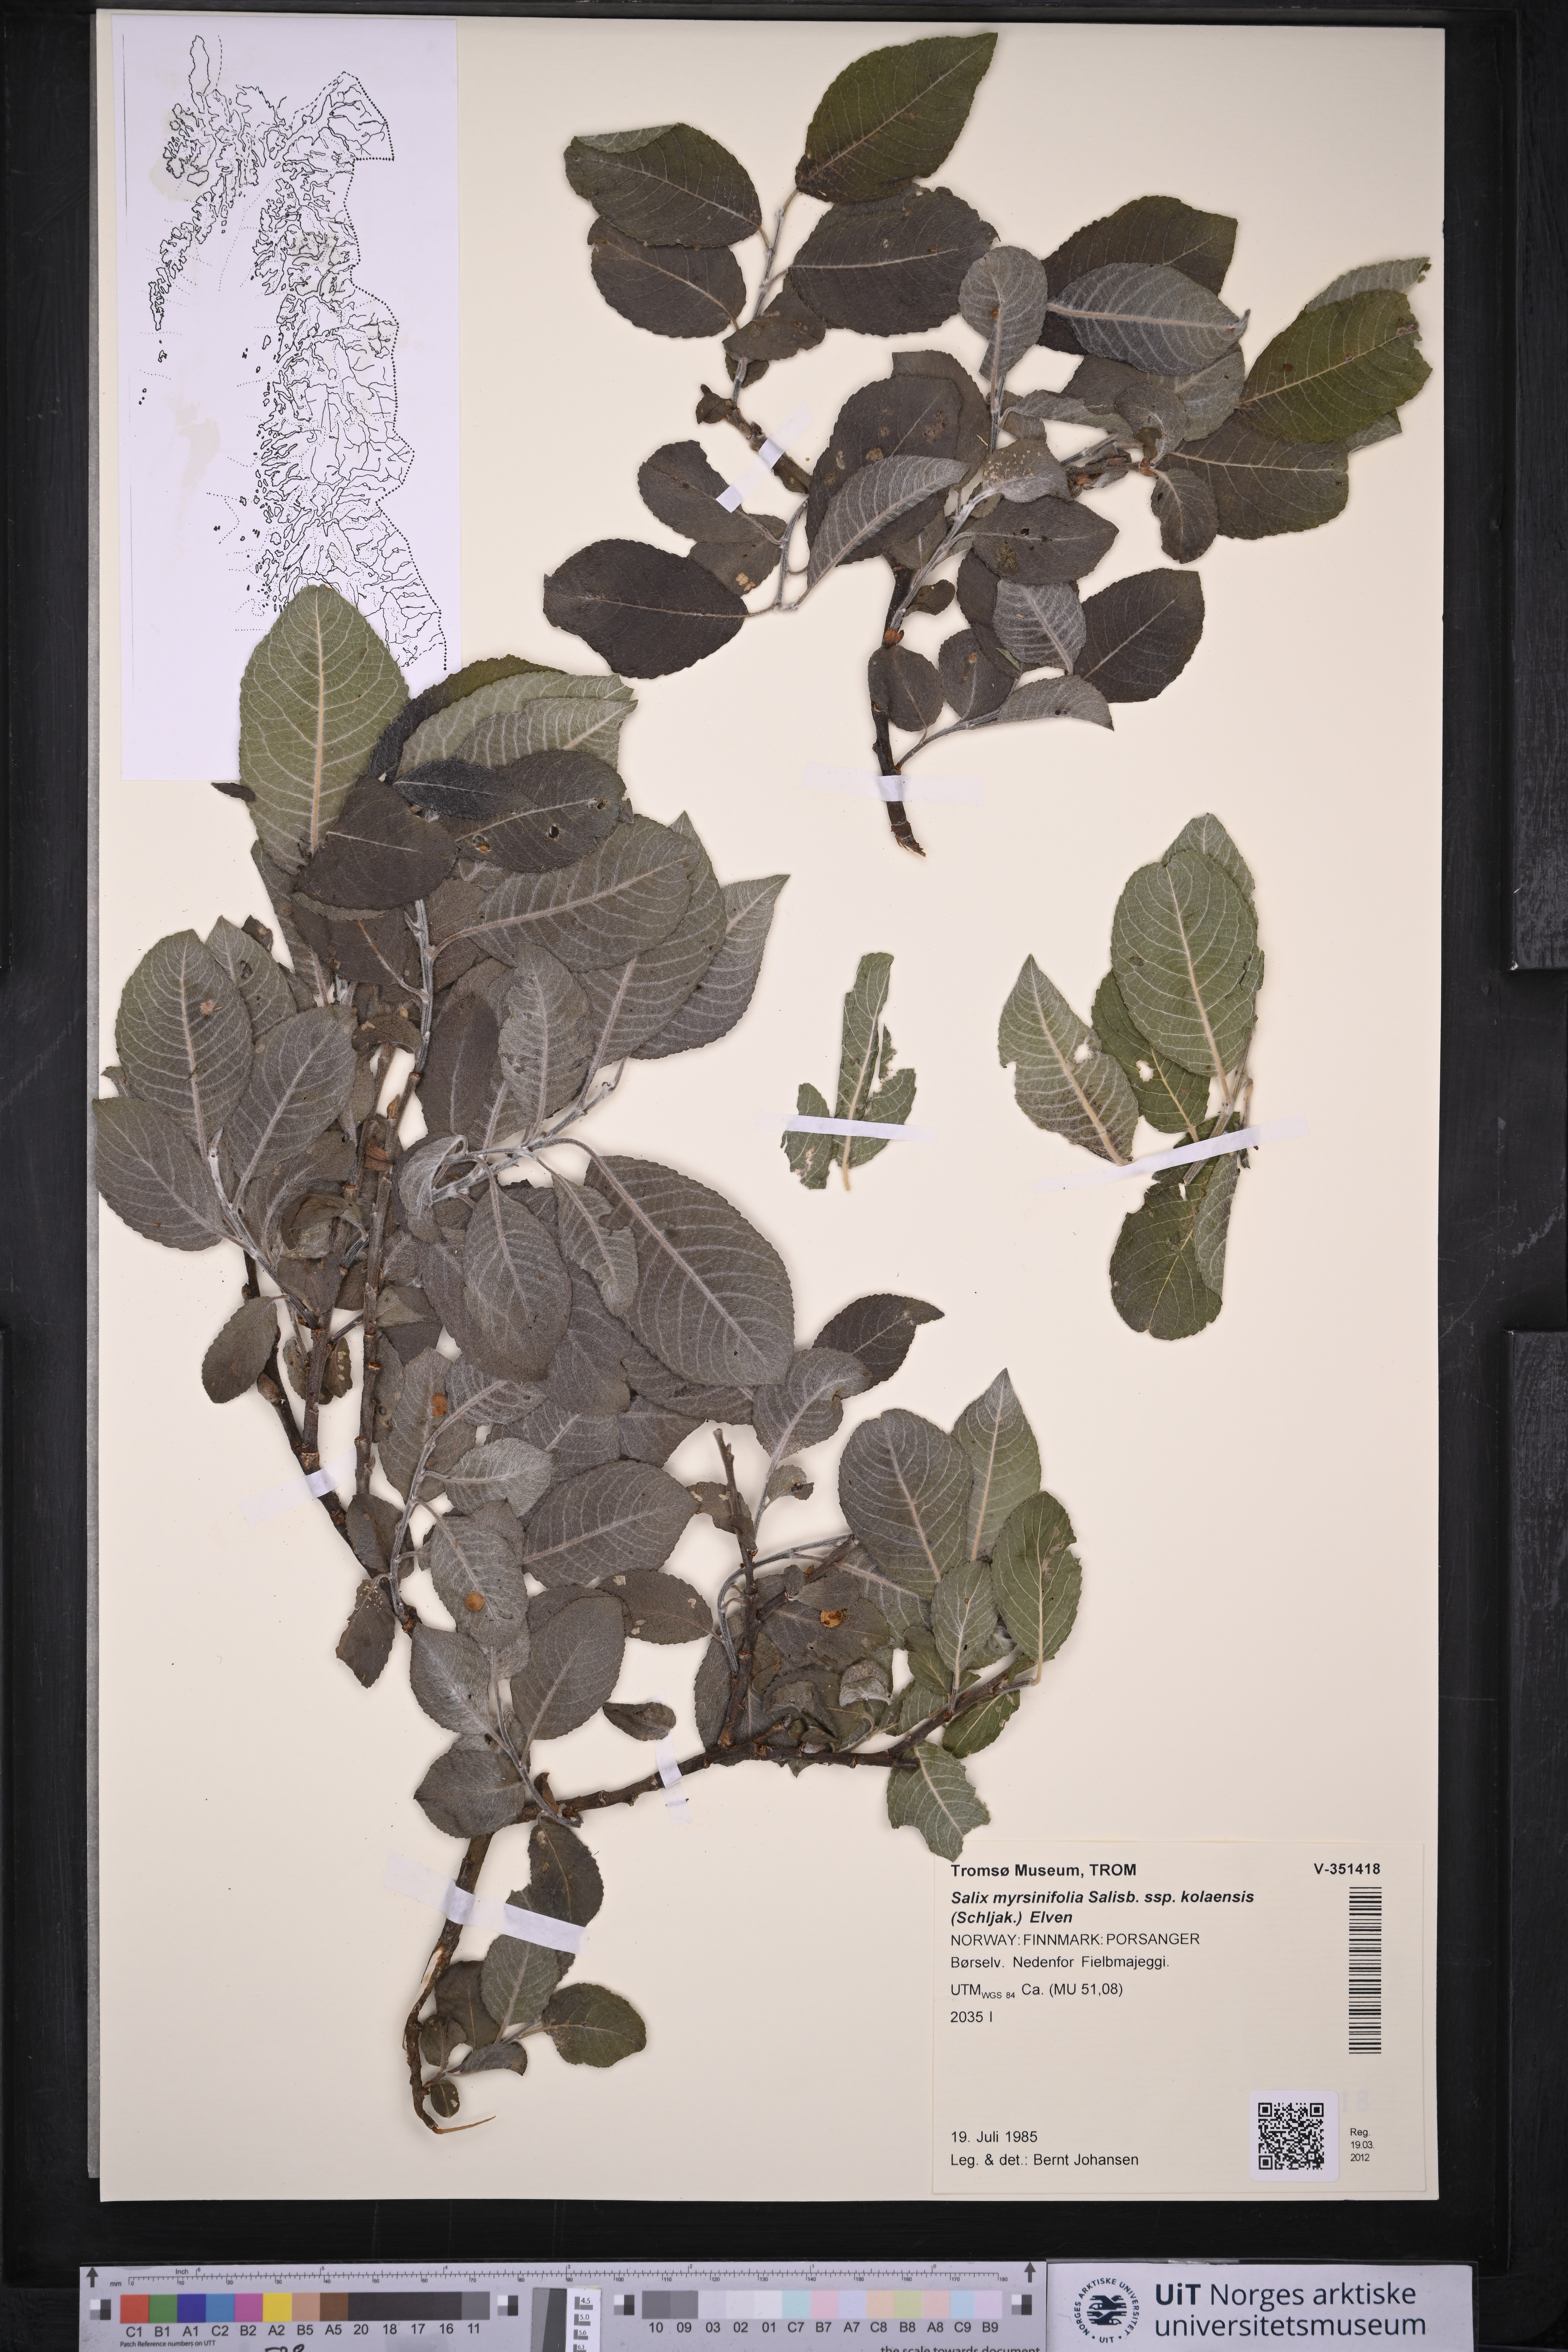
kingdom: Plantae
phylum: Tracheophyta
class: Magnoliopsida
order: Malpighiales
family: Salicaceae
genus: Salix
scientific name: Salix myrsinifolia
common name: Dark-leaved willow
